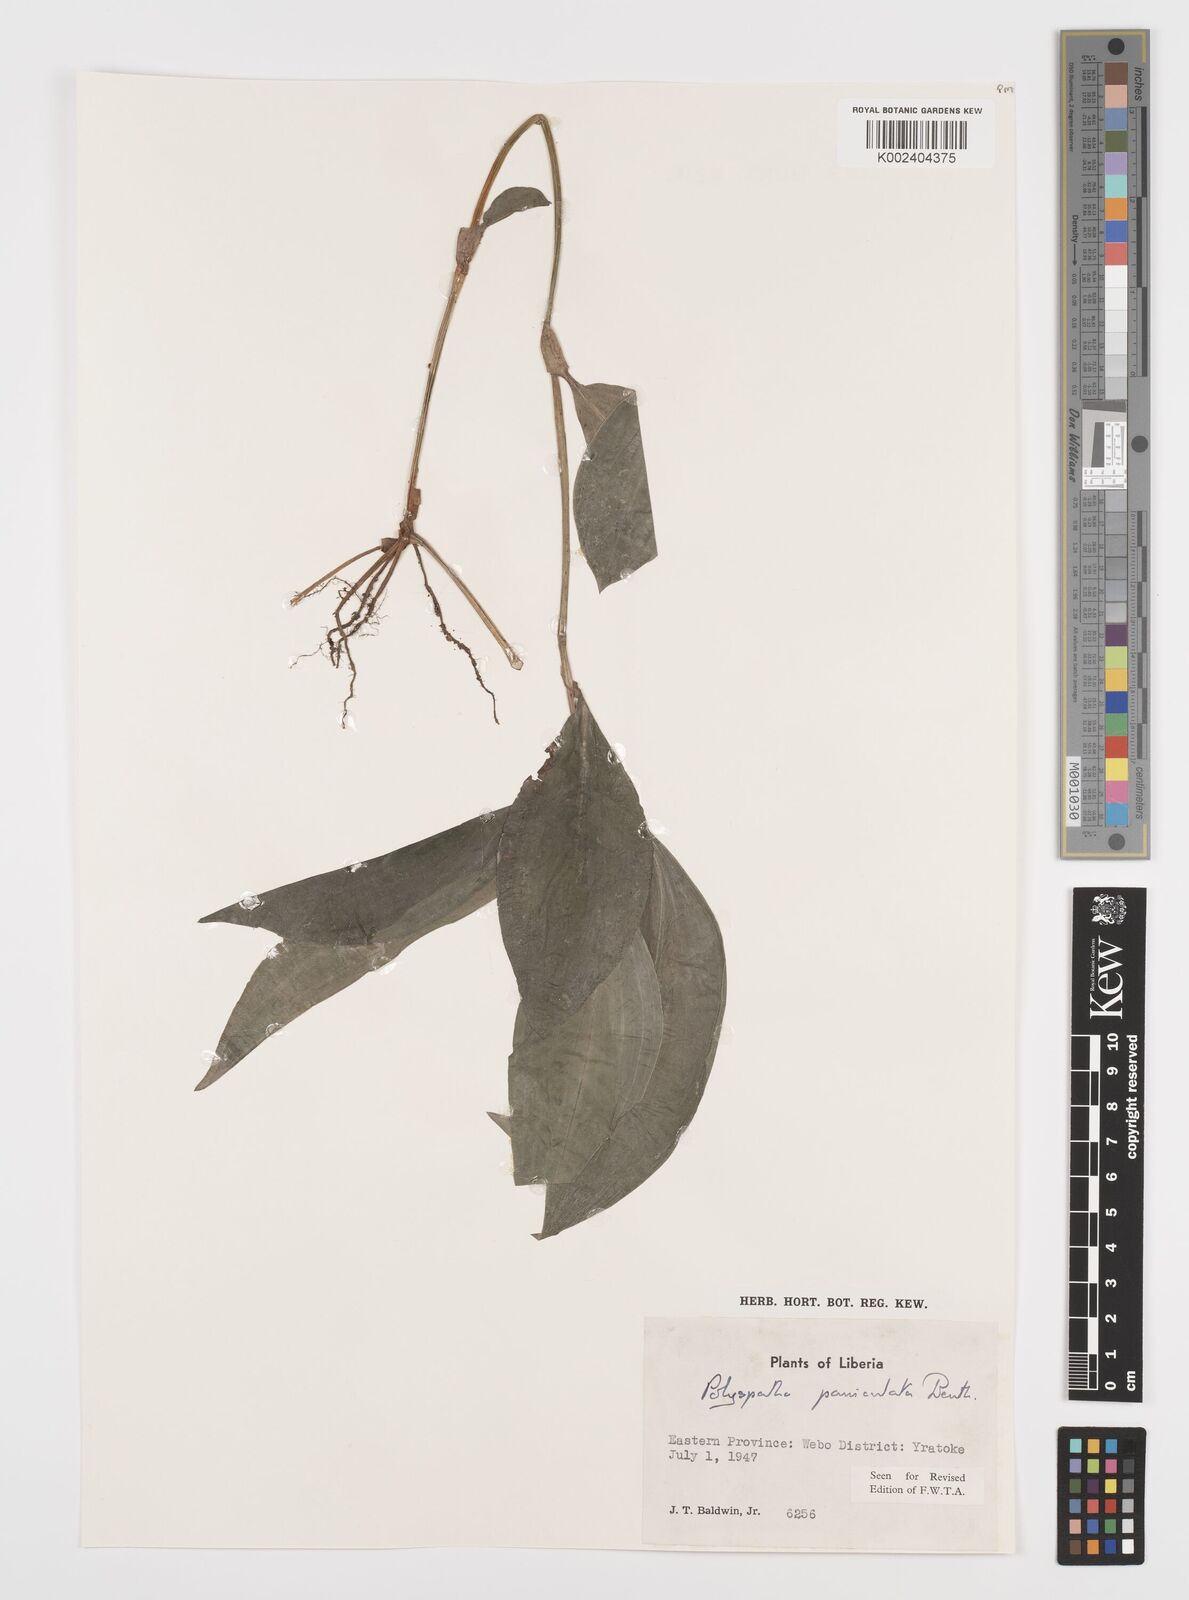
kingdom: Plantae
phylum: Tracheophyta
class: Liliopsida
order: Commelinales
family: Commelinaceae
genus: Polyspatha
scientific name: Polyspatha paniculata
